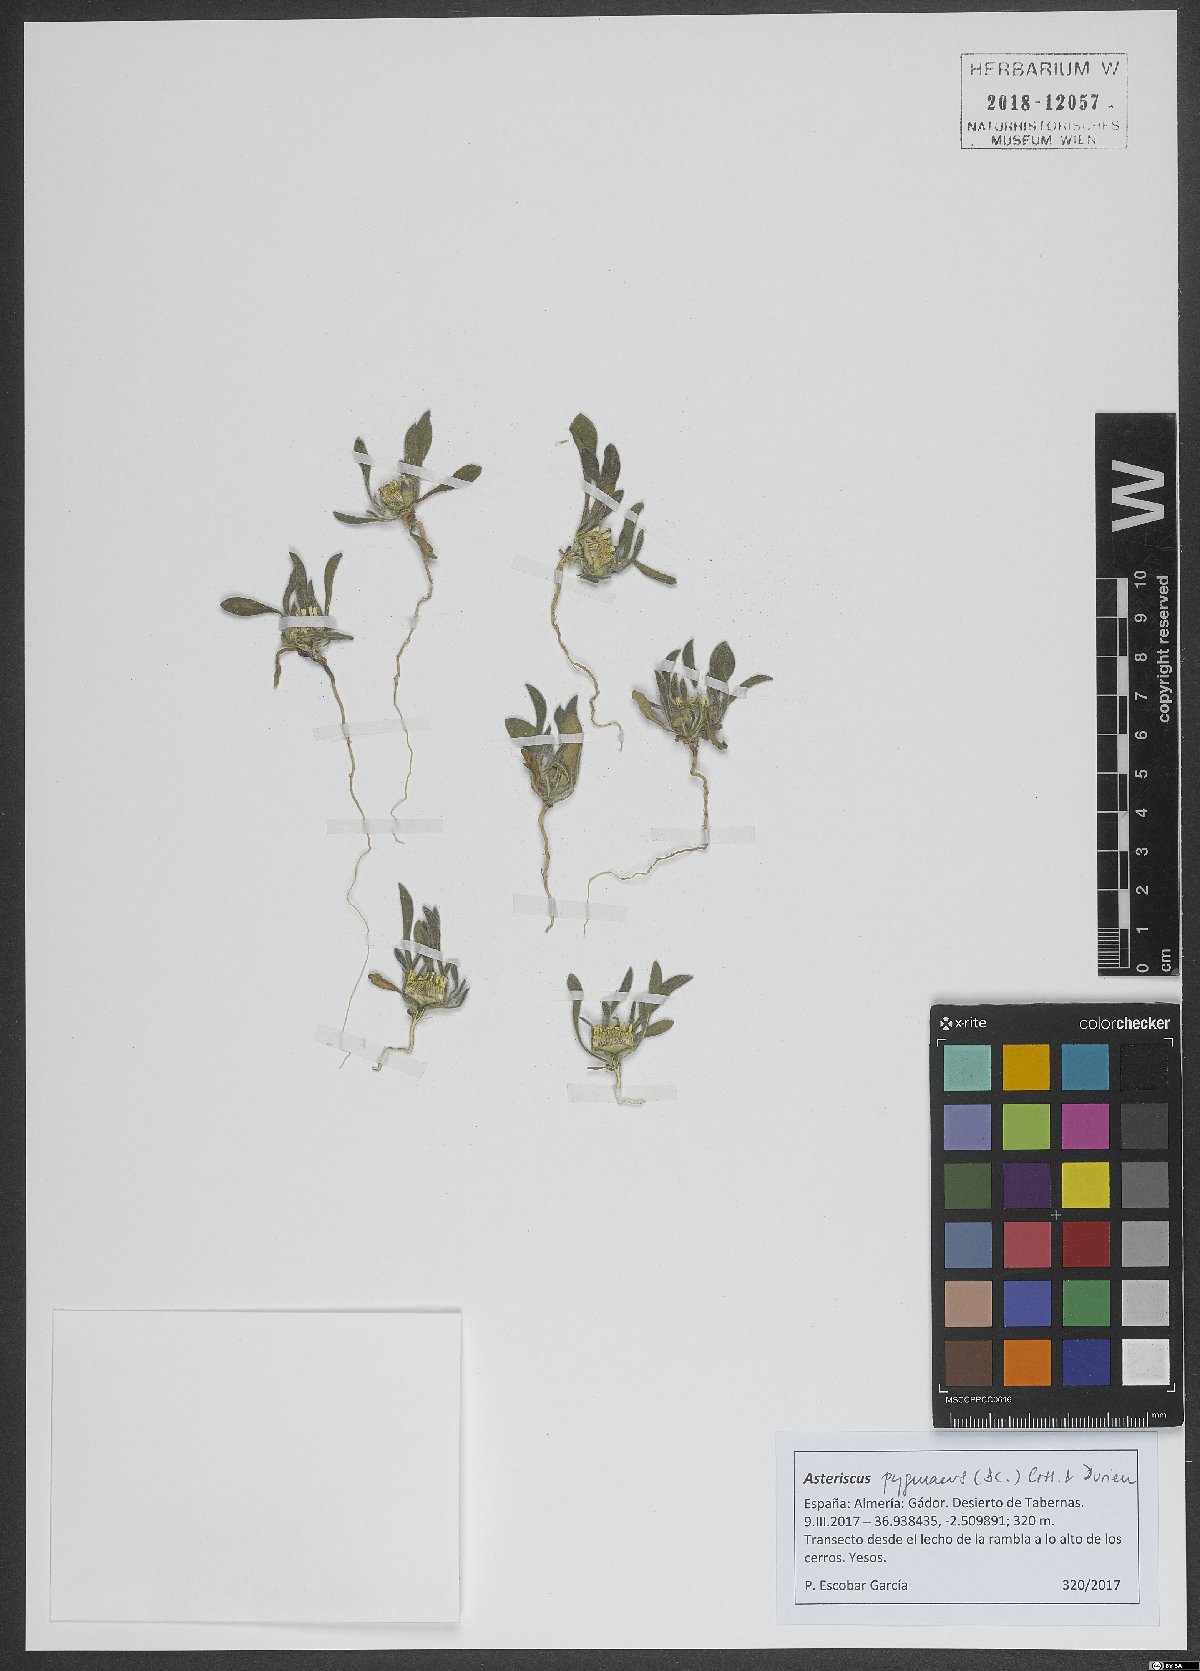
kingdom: Plantae
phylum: Tracheophyta
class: Magnoliopsida
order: Asterales
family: Asteraceae
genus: Pallenis
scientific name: Pallenis hierochuntica
